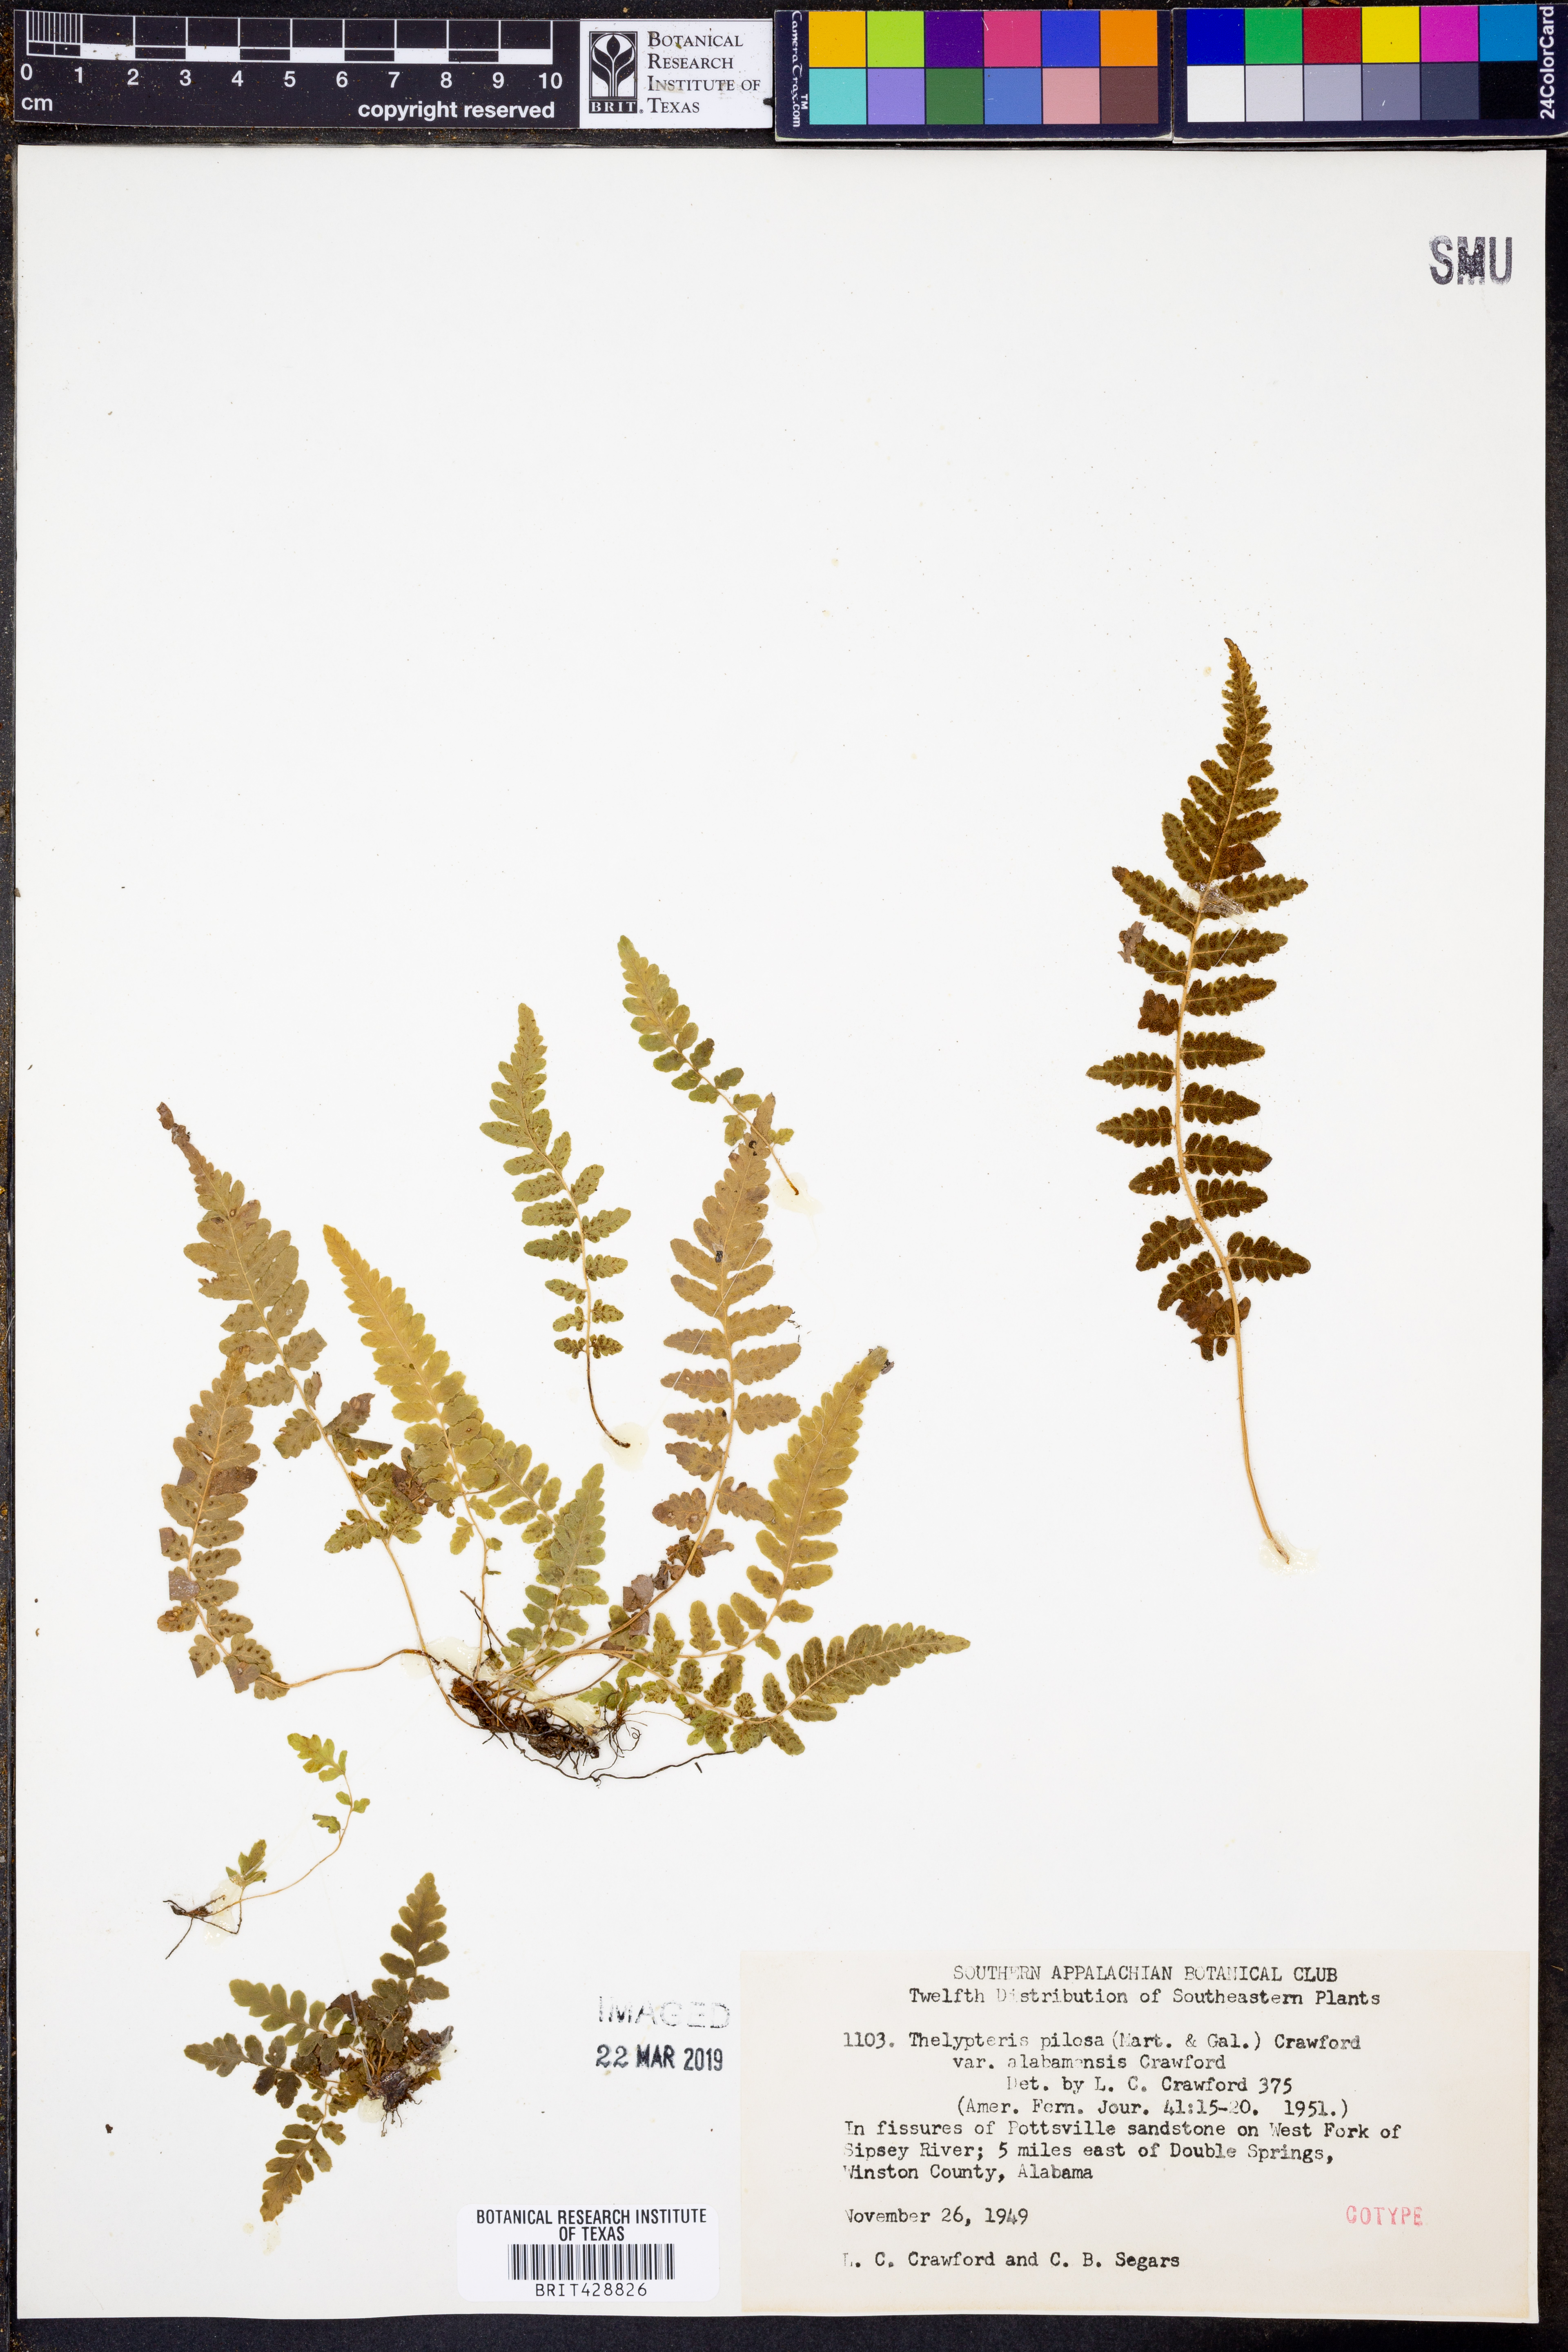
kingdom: Plantae
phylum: Tracheophyta
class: Polypodiopsida
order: Polypodiales
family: Thelypteridaceae
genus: Leptogramma
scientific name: Leptogramma burksiorum
